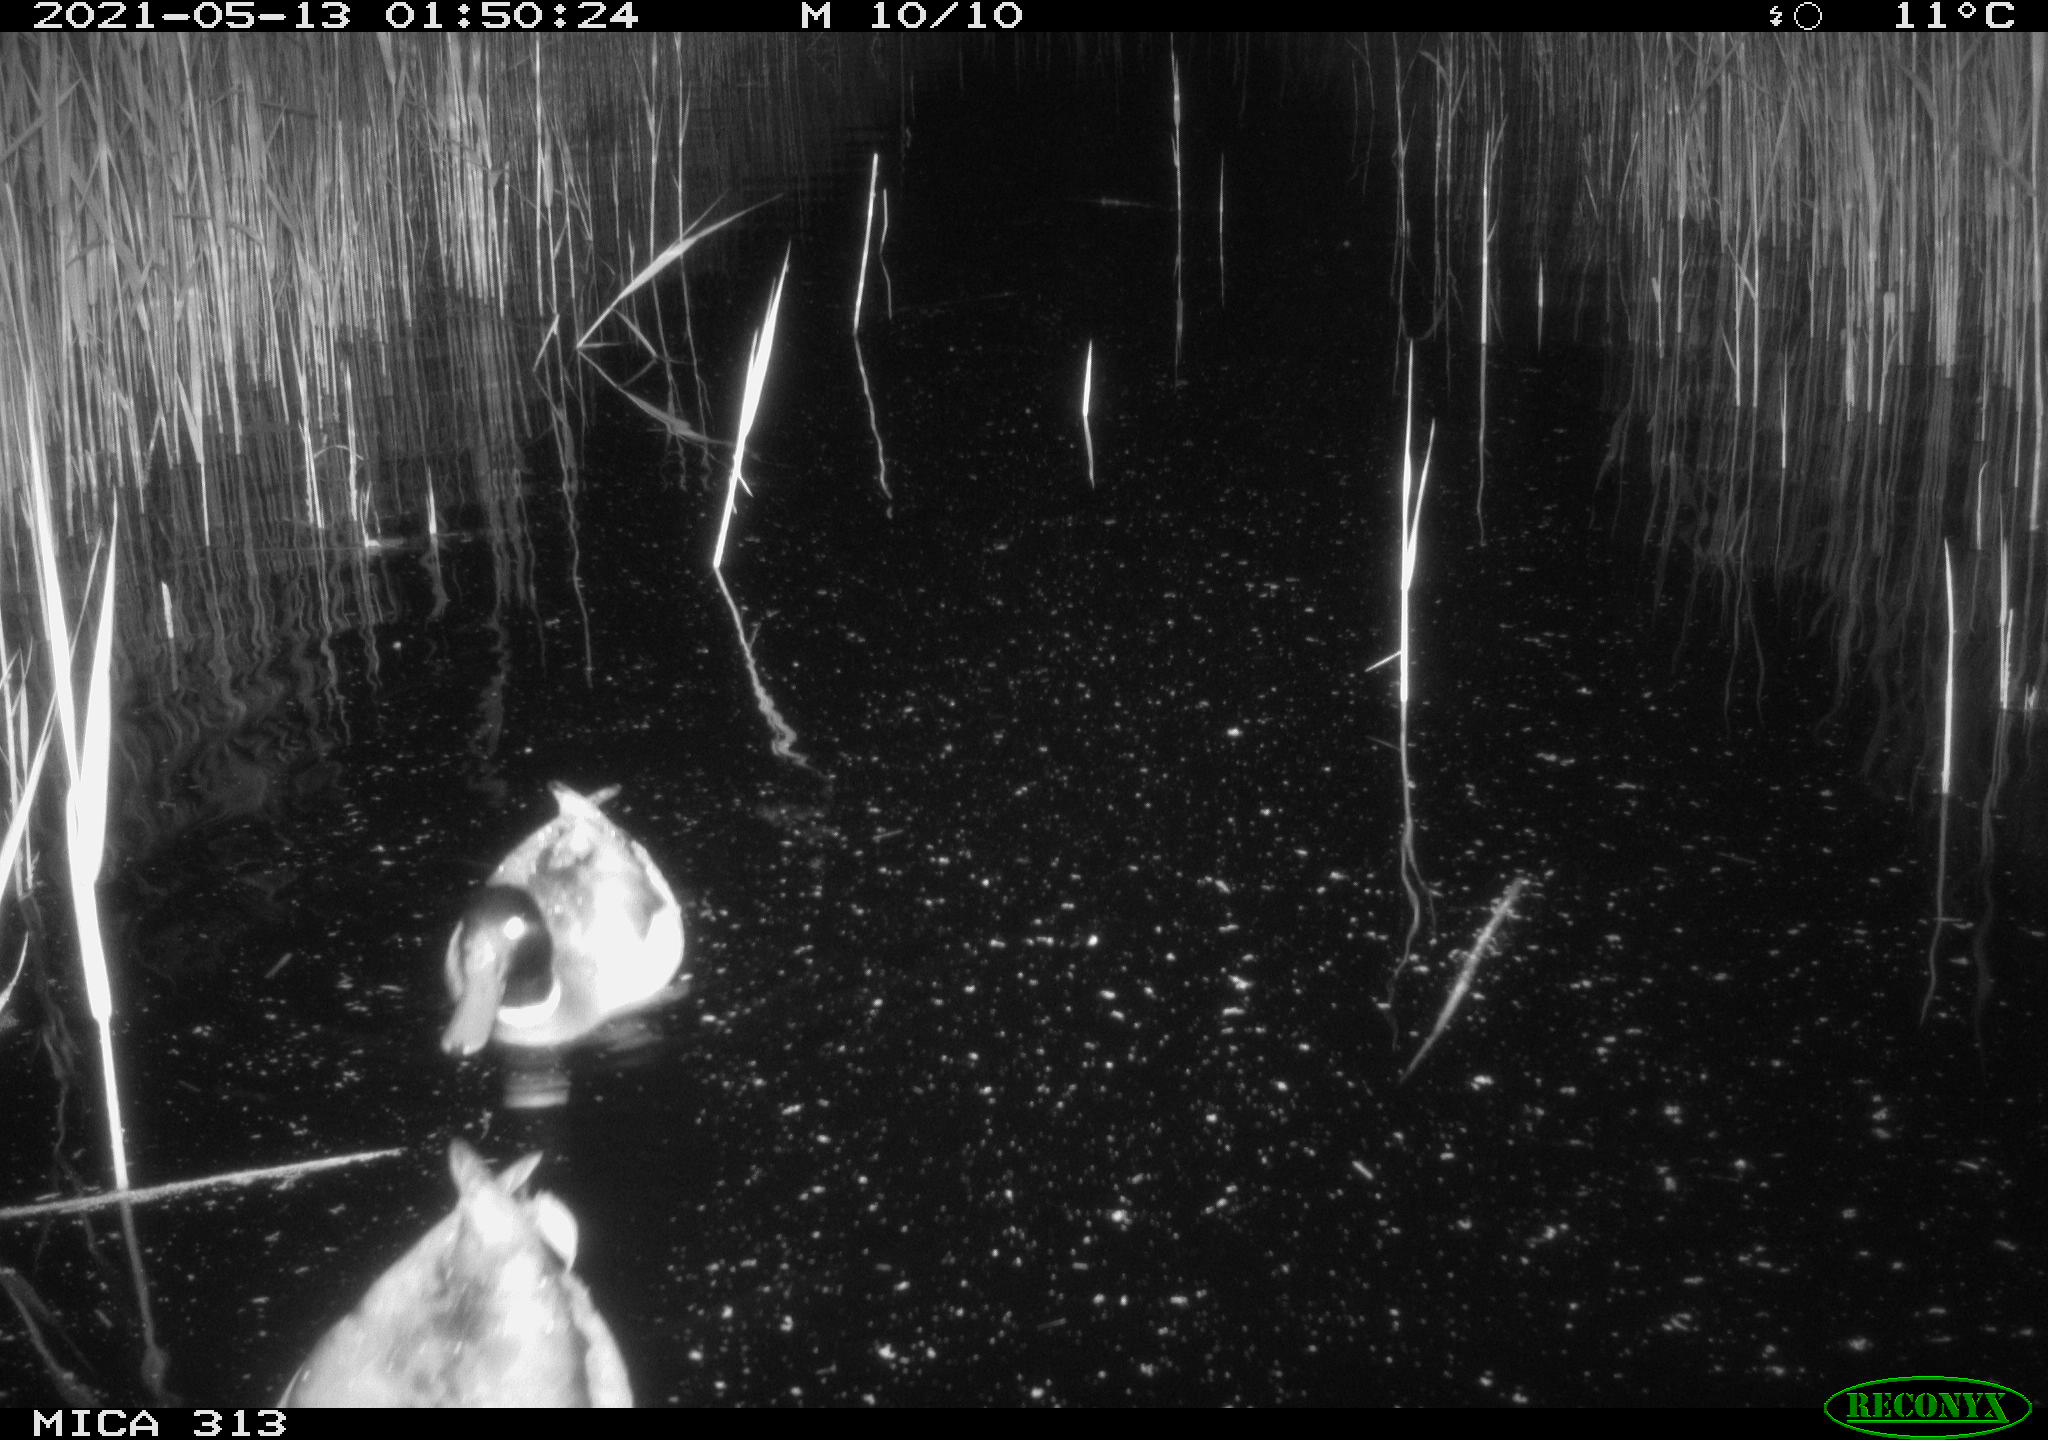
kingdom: Animalia
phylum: Chordata
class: Aves
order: Anseriformes
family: Anatidae
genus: Anas
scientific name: Anas platyrhynchos
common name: Mallard
